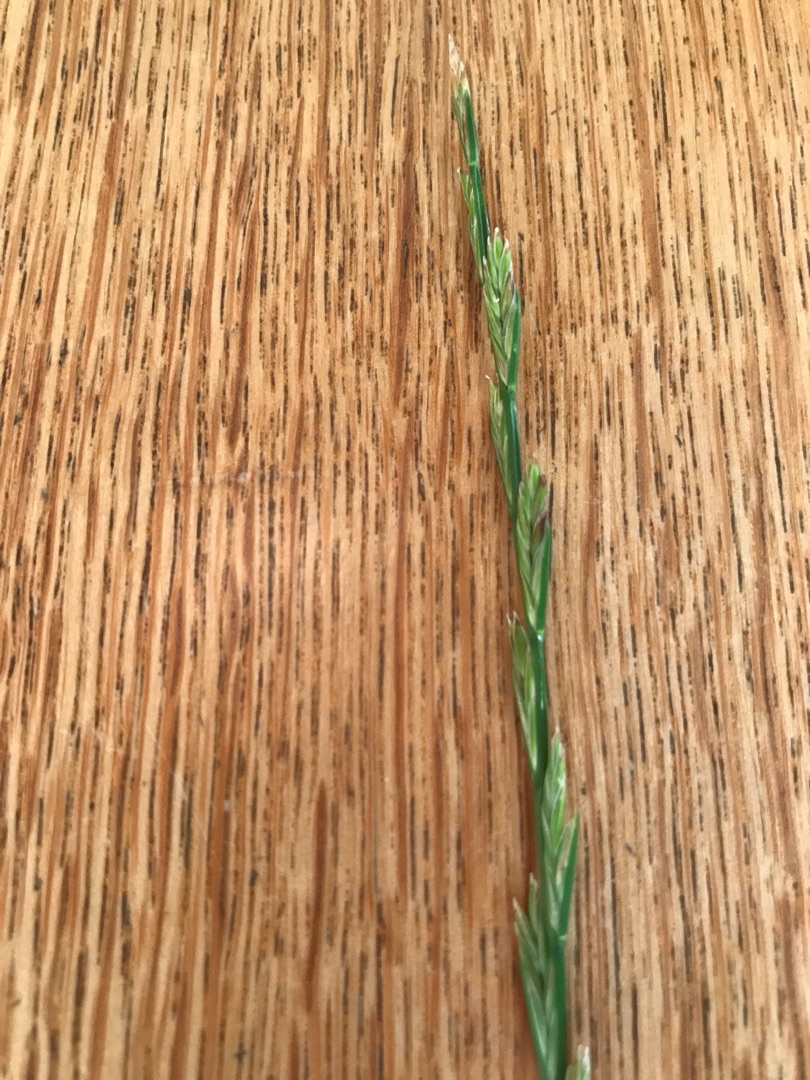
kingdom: Plantae
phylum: Tracheophyta
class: Liliopsida
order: Poales
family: Poaceae
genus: Lolium
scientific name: Lolium perenne
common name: Almindelig rajgræs
